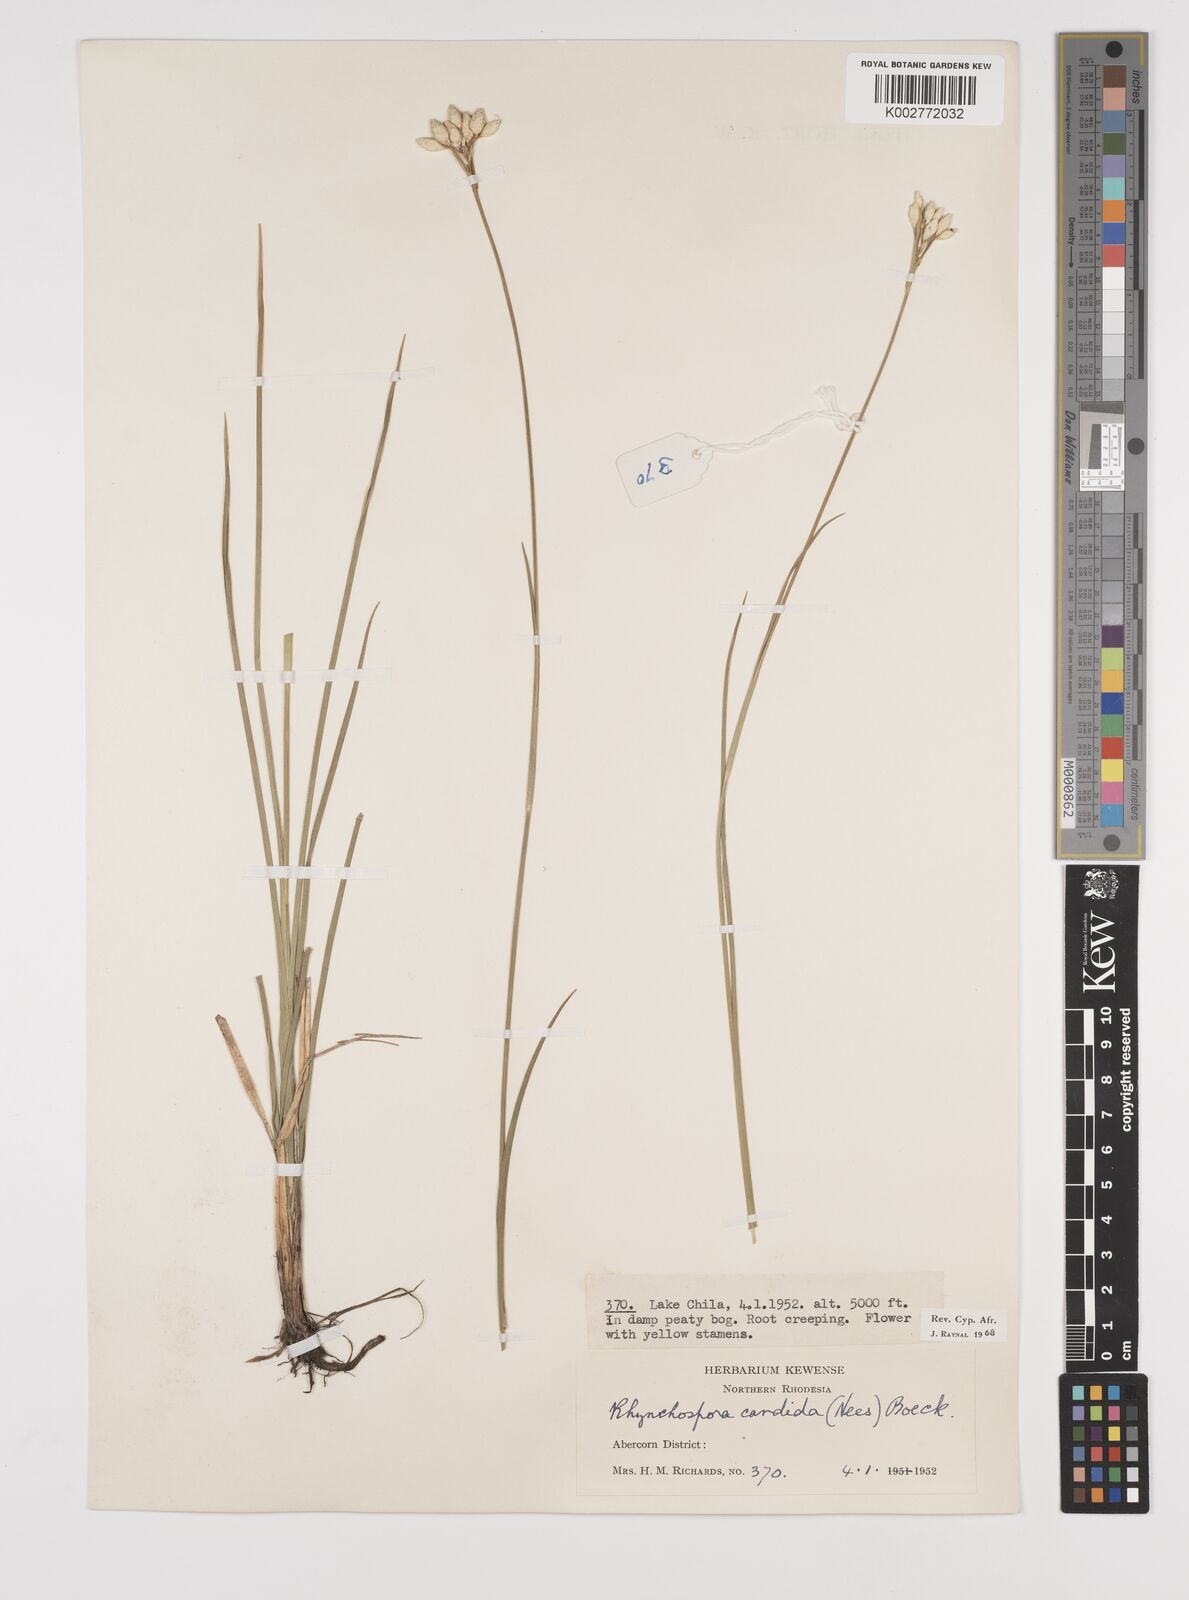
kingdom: Plantae
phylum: Tracheophyta
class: Liliopsida
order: Poales
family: Cyperaceae
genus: Rhynchospora
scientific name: Rhynchospora candida
